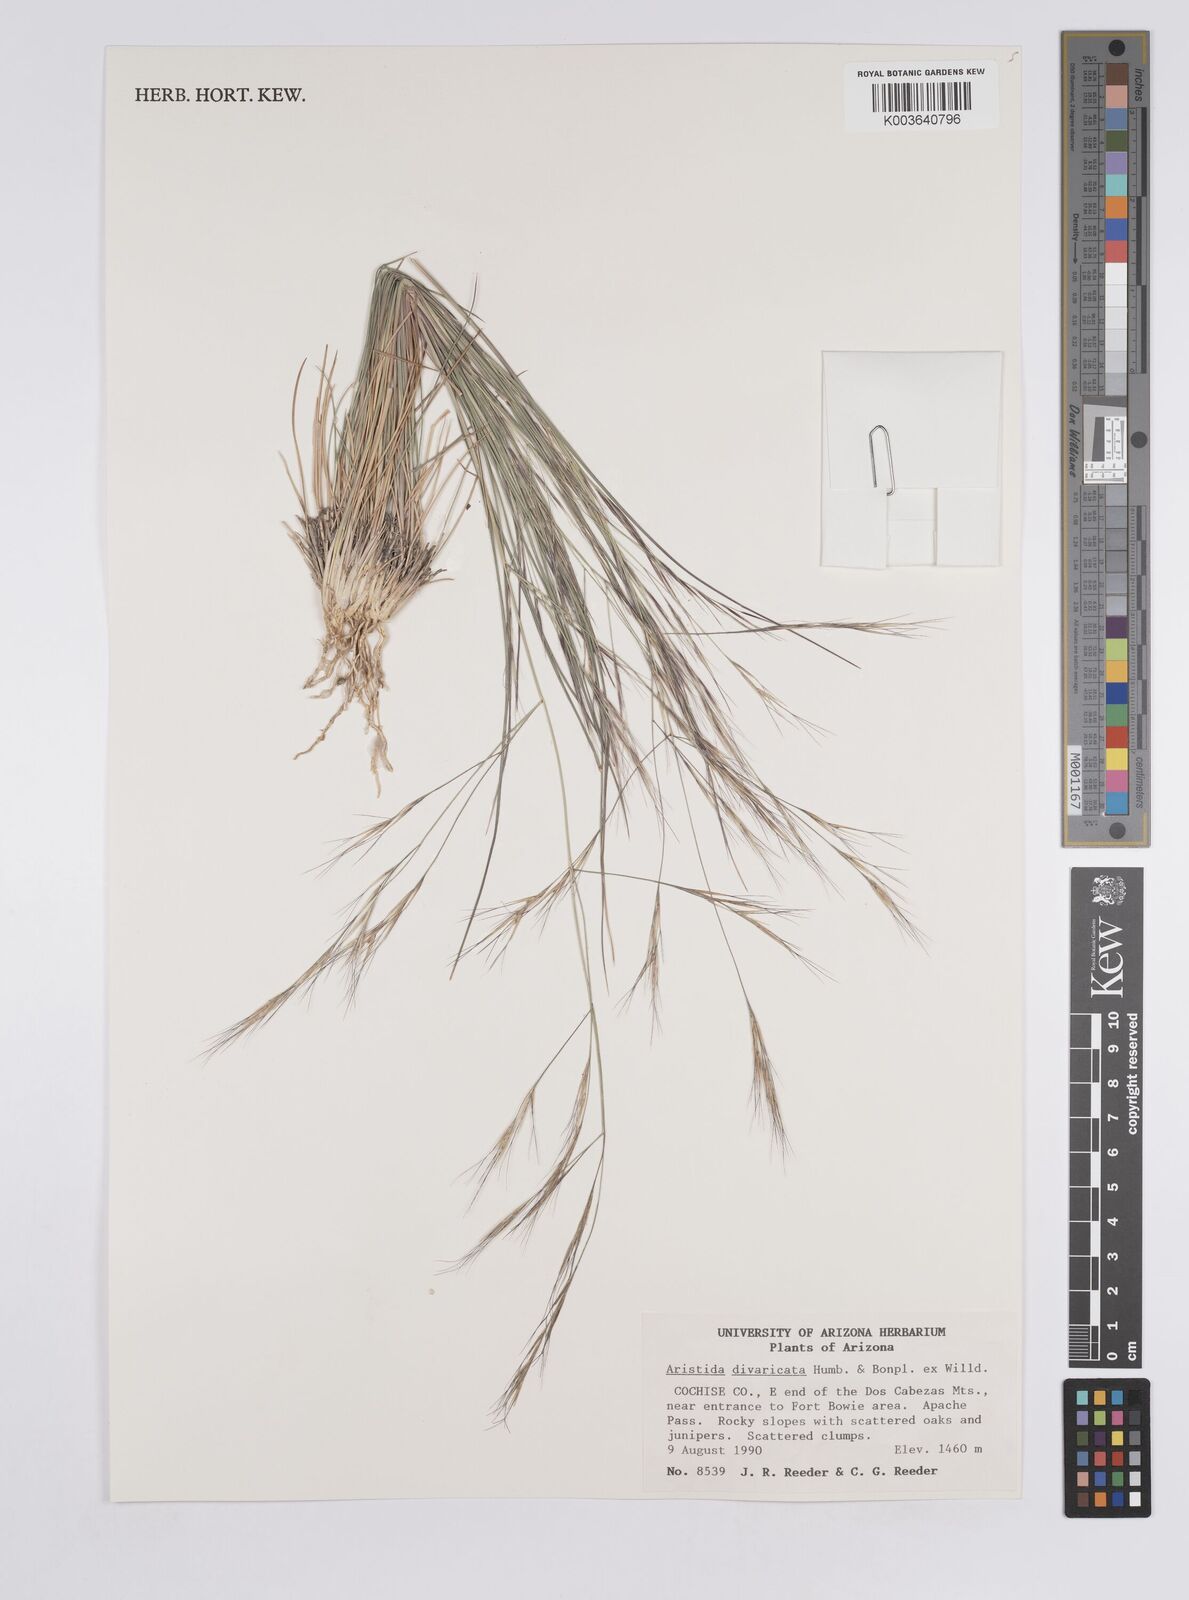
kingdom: Plantae
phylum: Tracheophyta
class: Liliopsida
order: Poales
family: Poaceae
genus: Aristida
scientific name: Aristida laxa
